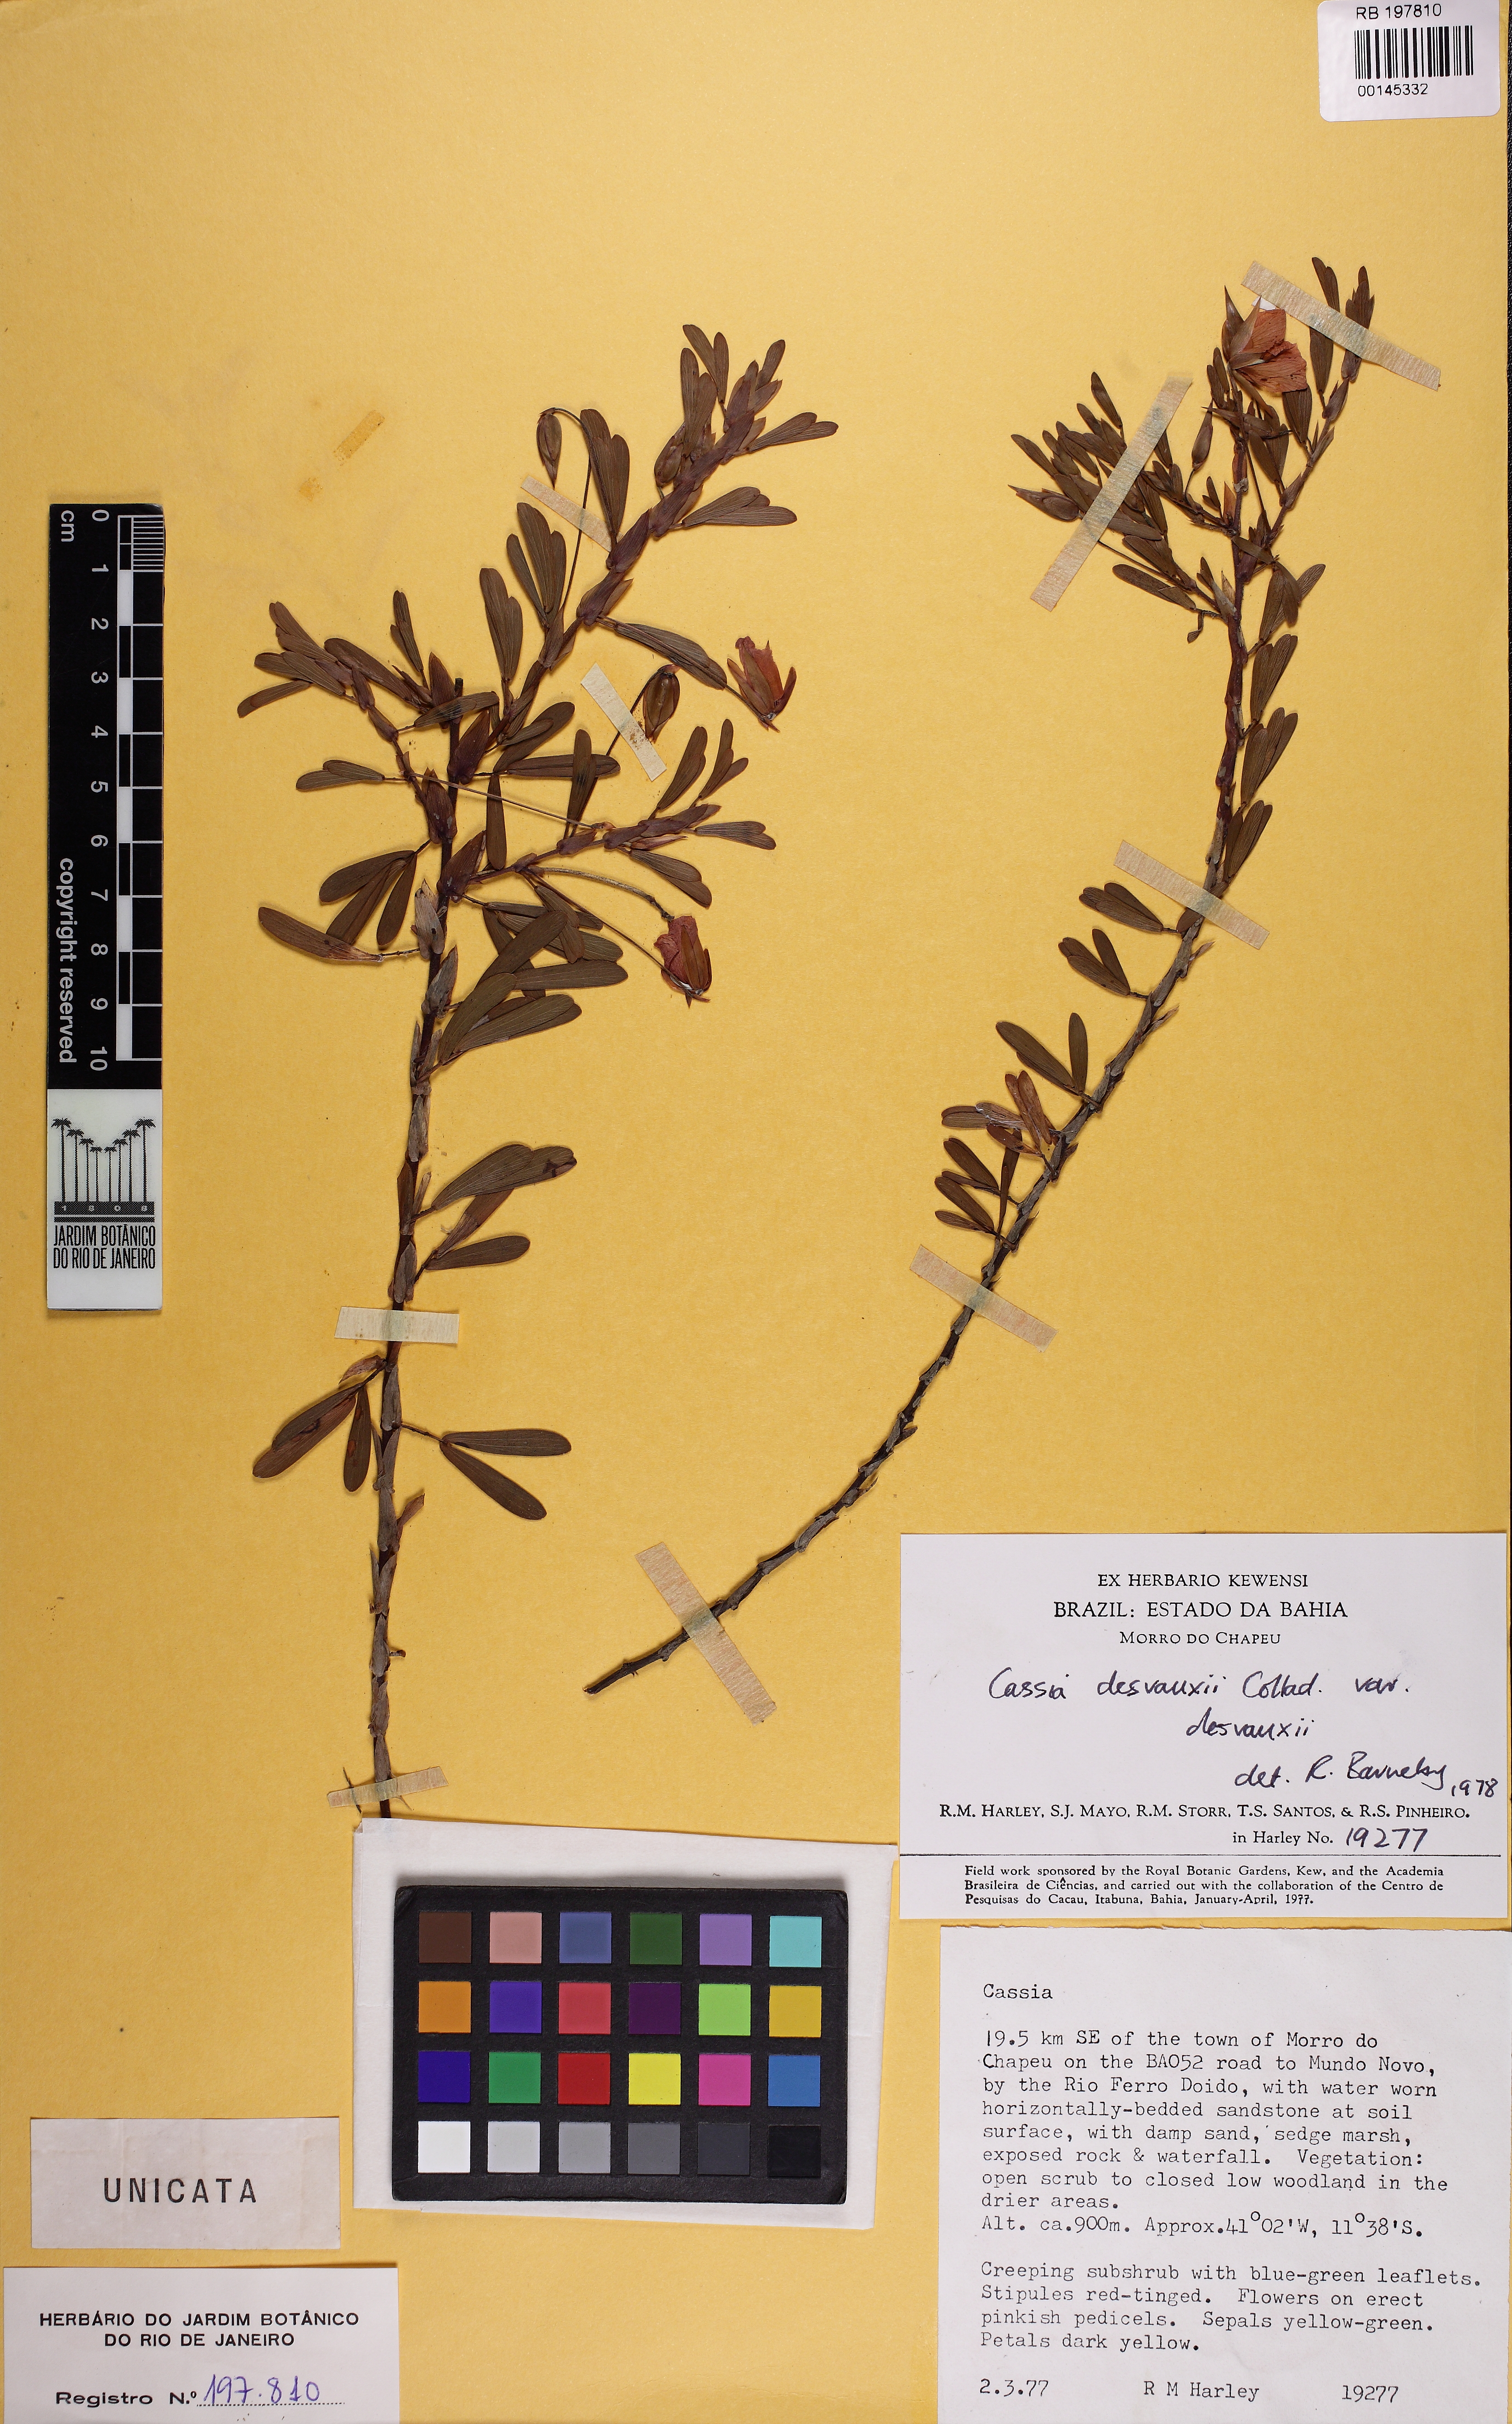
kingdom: Plantae
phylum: Tracheophyta
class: Magnoliopsida
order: Fabales
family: Fabaceae
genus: Chamaecrista
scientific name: Chamaecrista desvauxii
